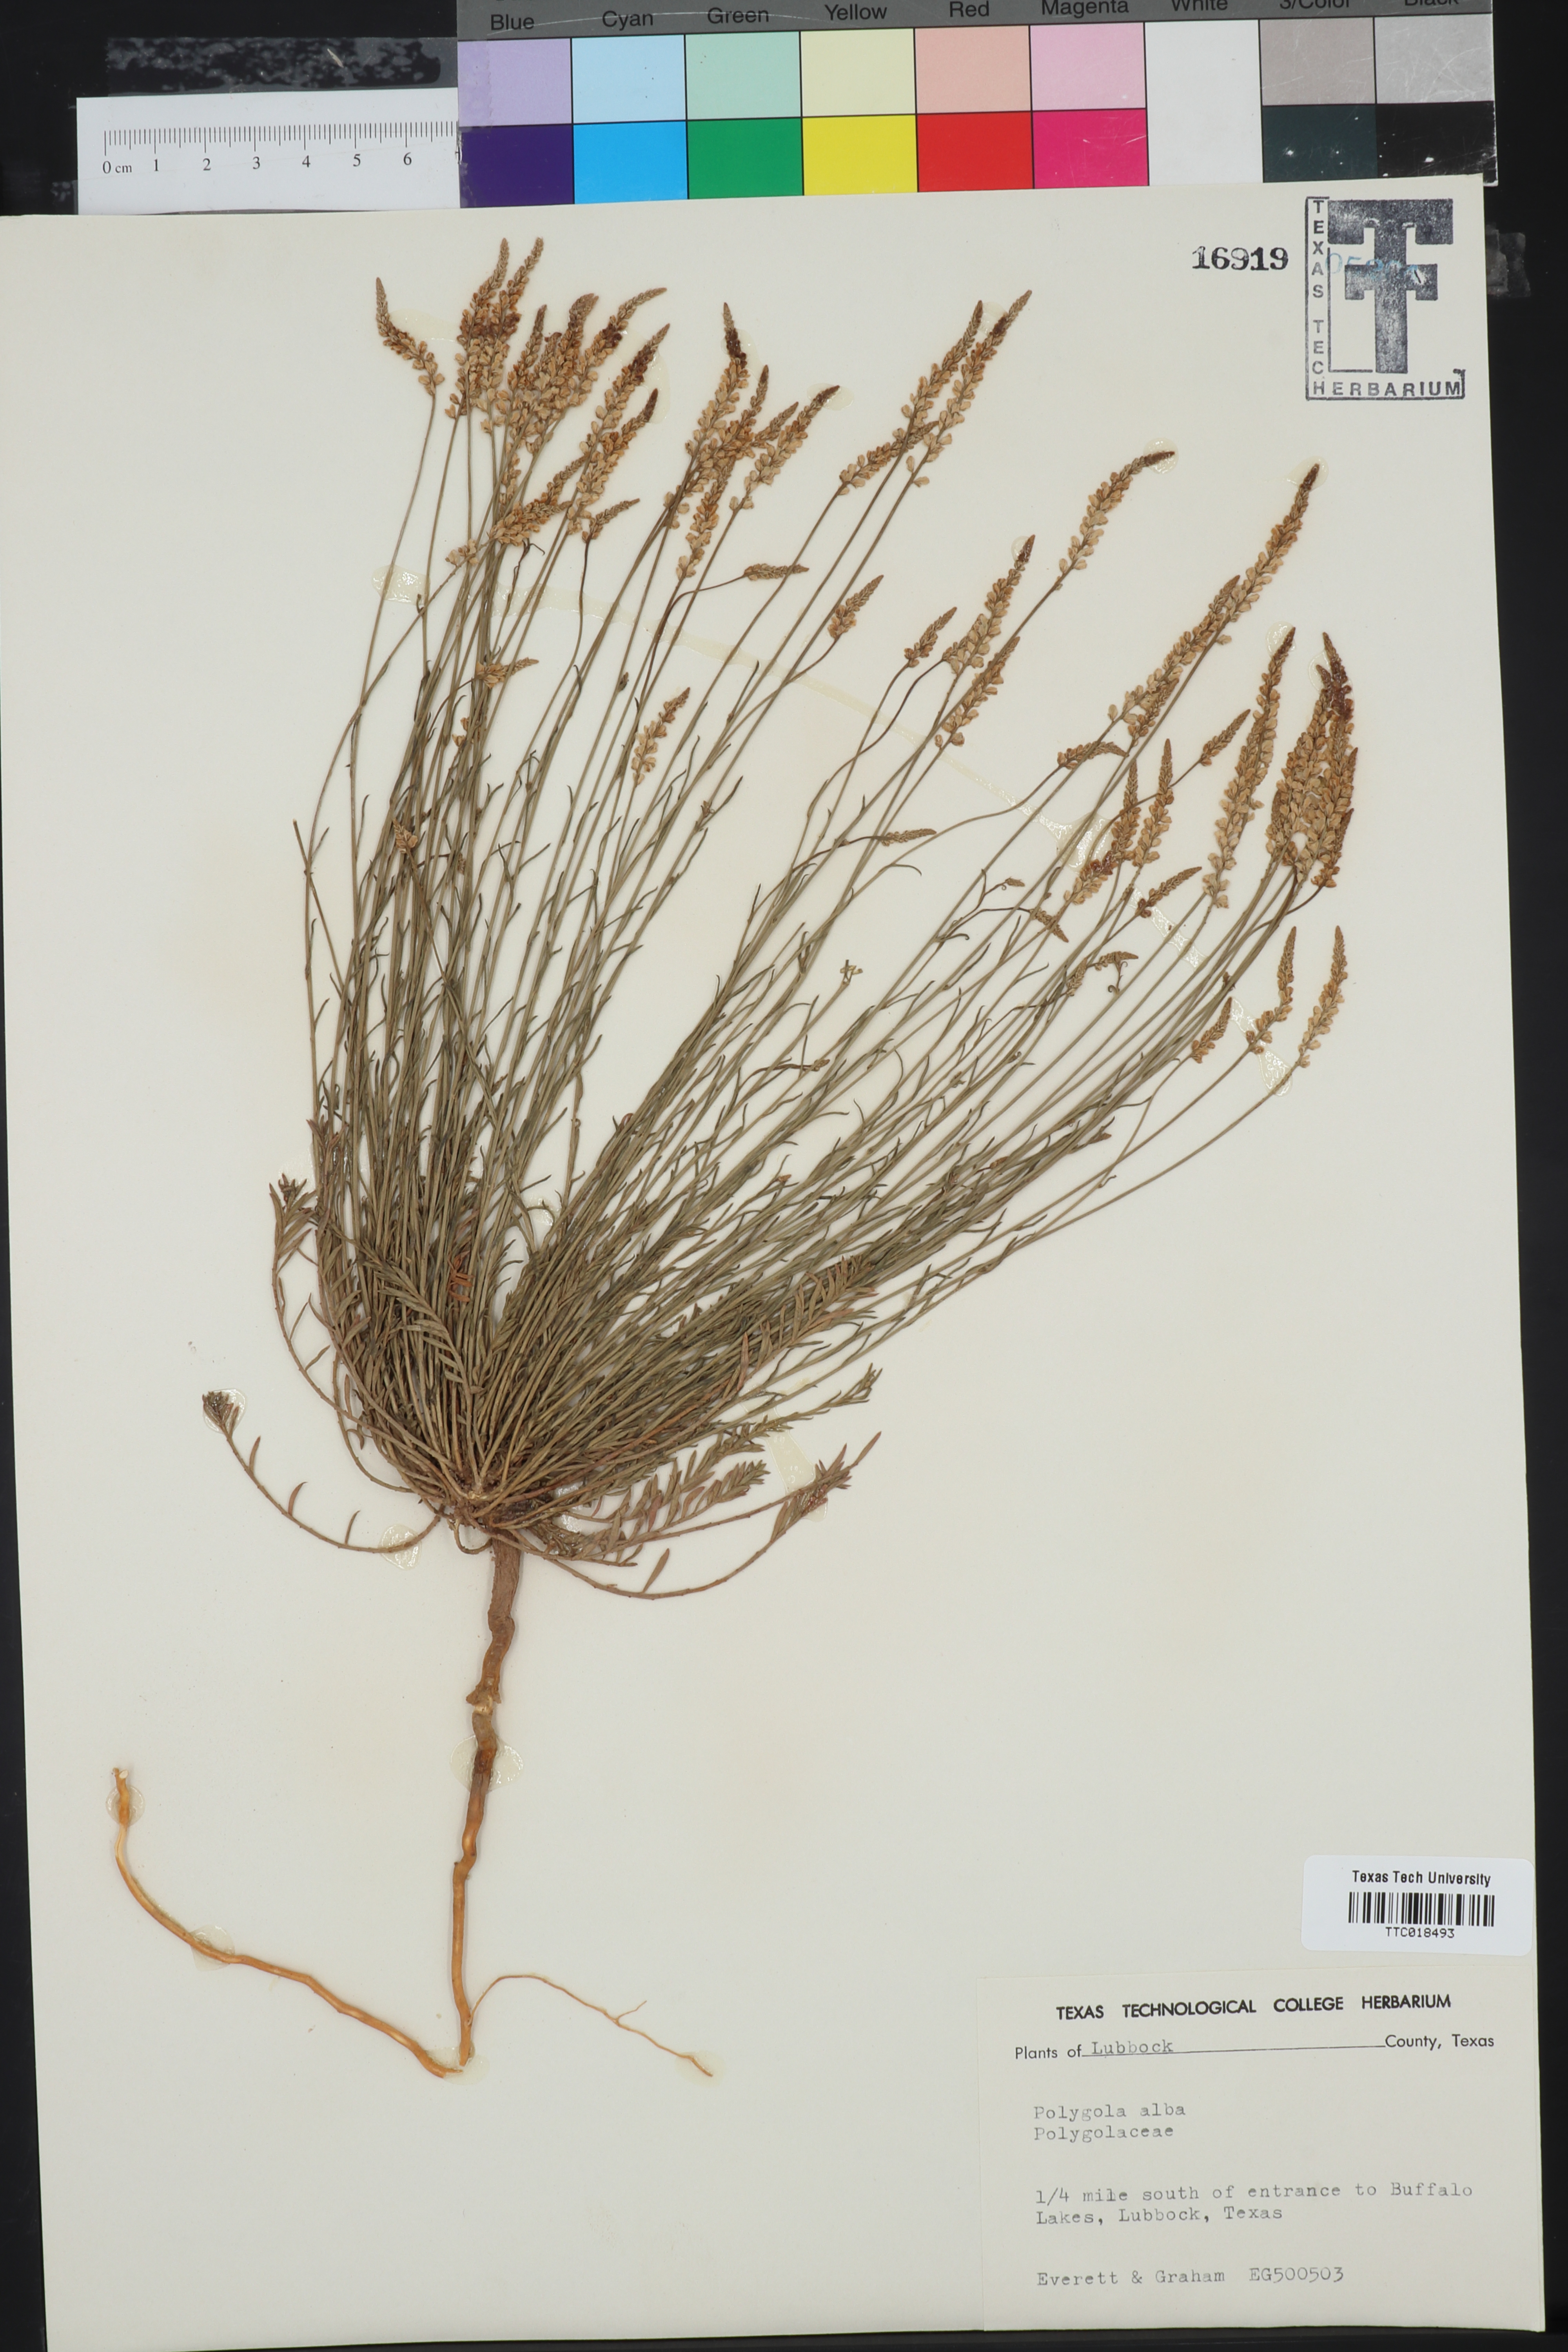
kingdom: Plantae
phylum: Tracheophyta
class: Magnoliopsida
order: Fabales
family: Polygalaceae
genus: Polygala
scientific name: Polygala alba
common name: White milkwort
